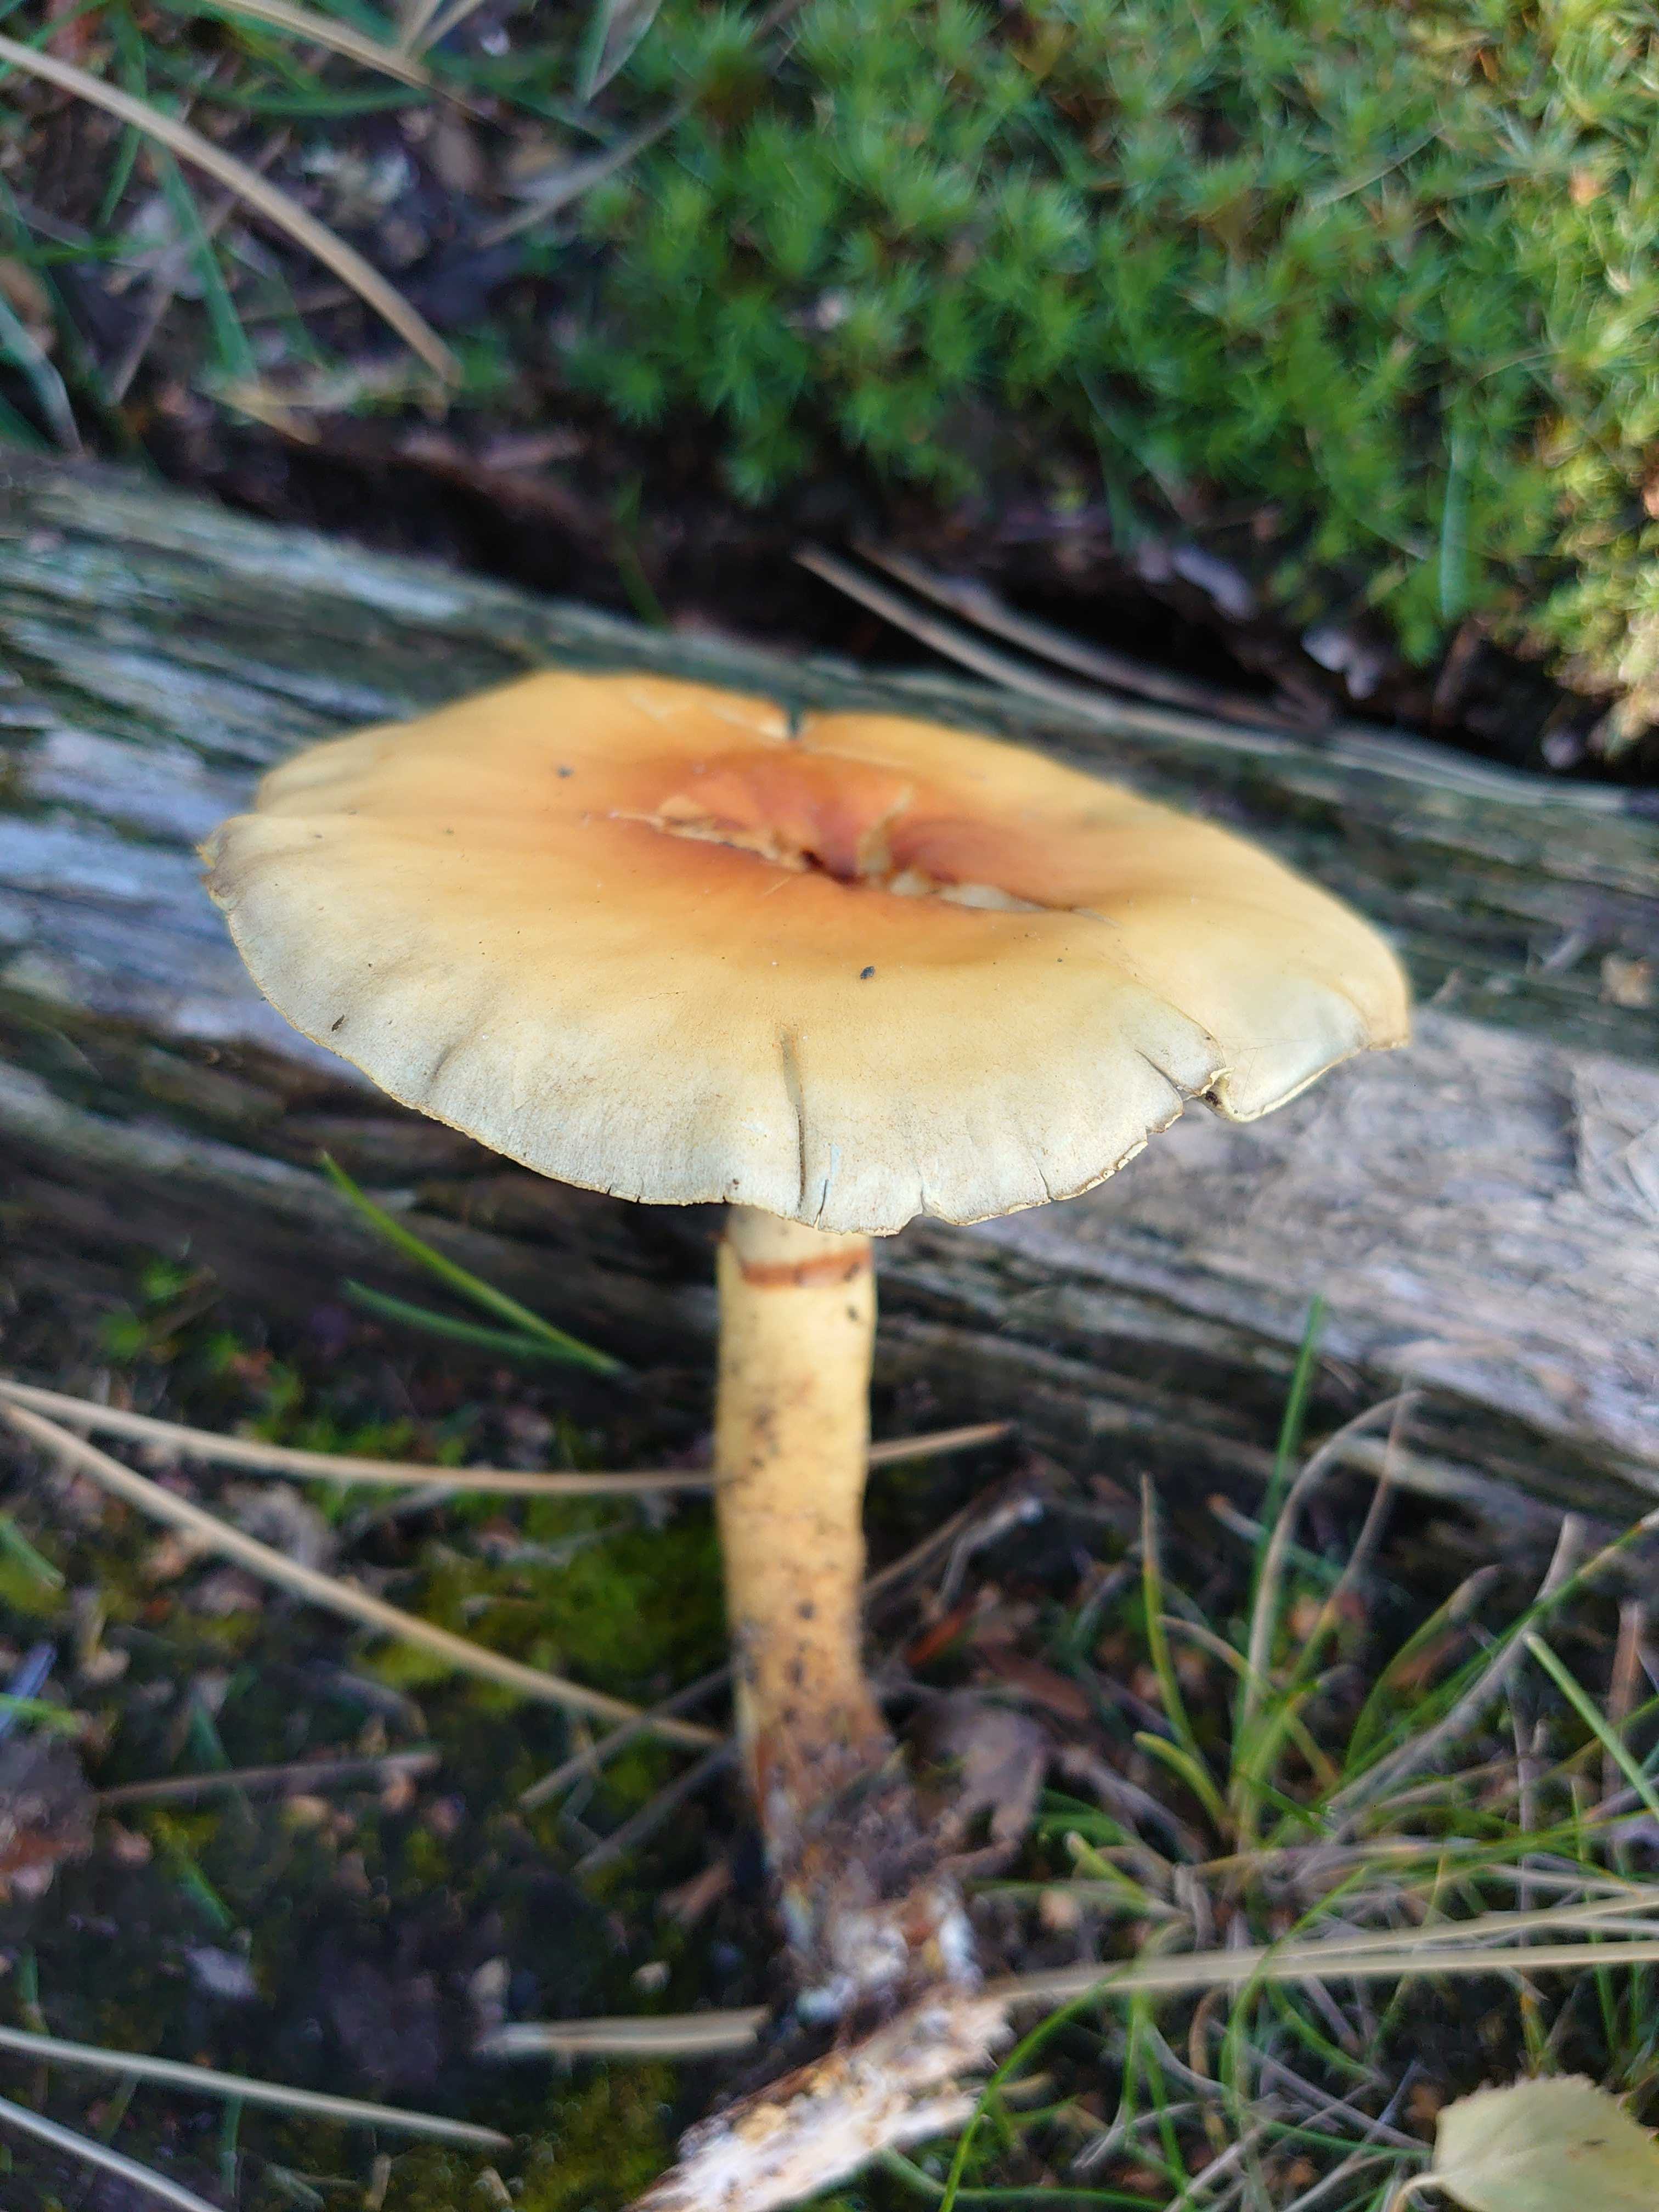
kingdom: Fungi
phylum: Basidiomycota
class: Agaricomycetes
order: Agaricales
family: Strophariaceae
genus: Hypholoma
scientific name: Hypholoma
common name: svovlhat
